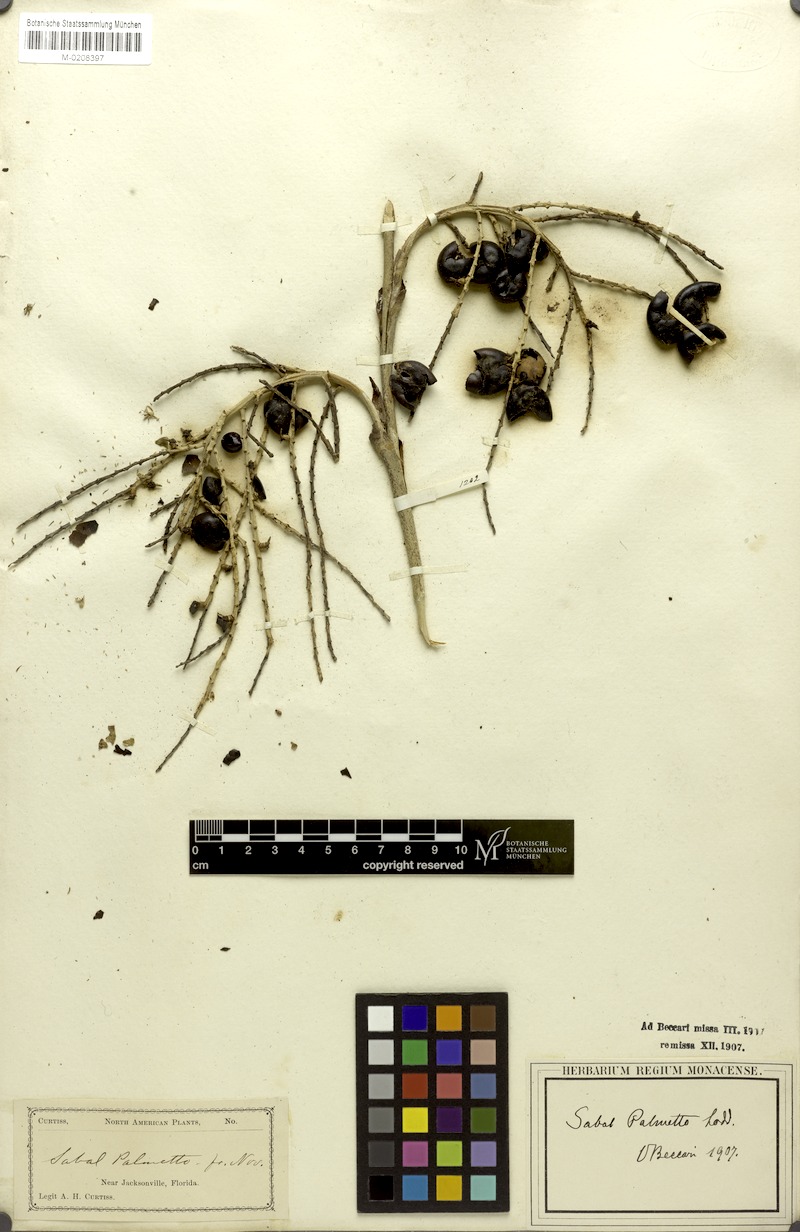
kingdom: Plantae
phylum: Tracheophyta
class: Liliopsida
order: Arecales
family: Arecaceae
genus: Sabal
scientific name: Sabal palmetto
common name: Blue palmetto
